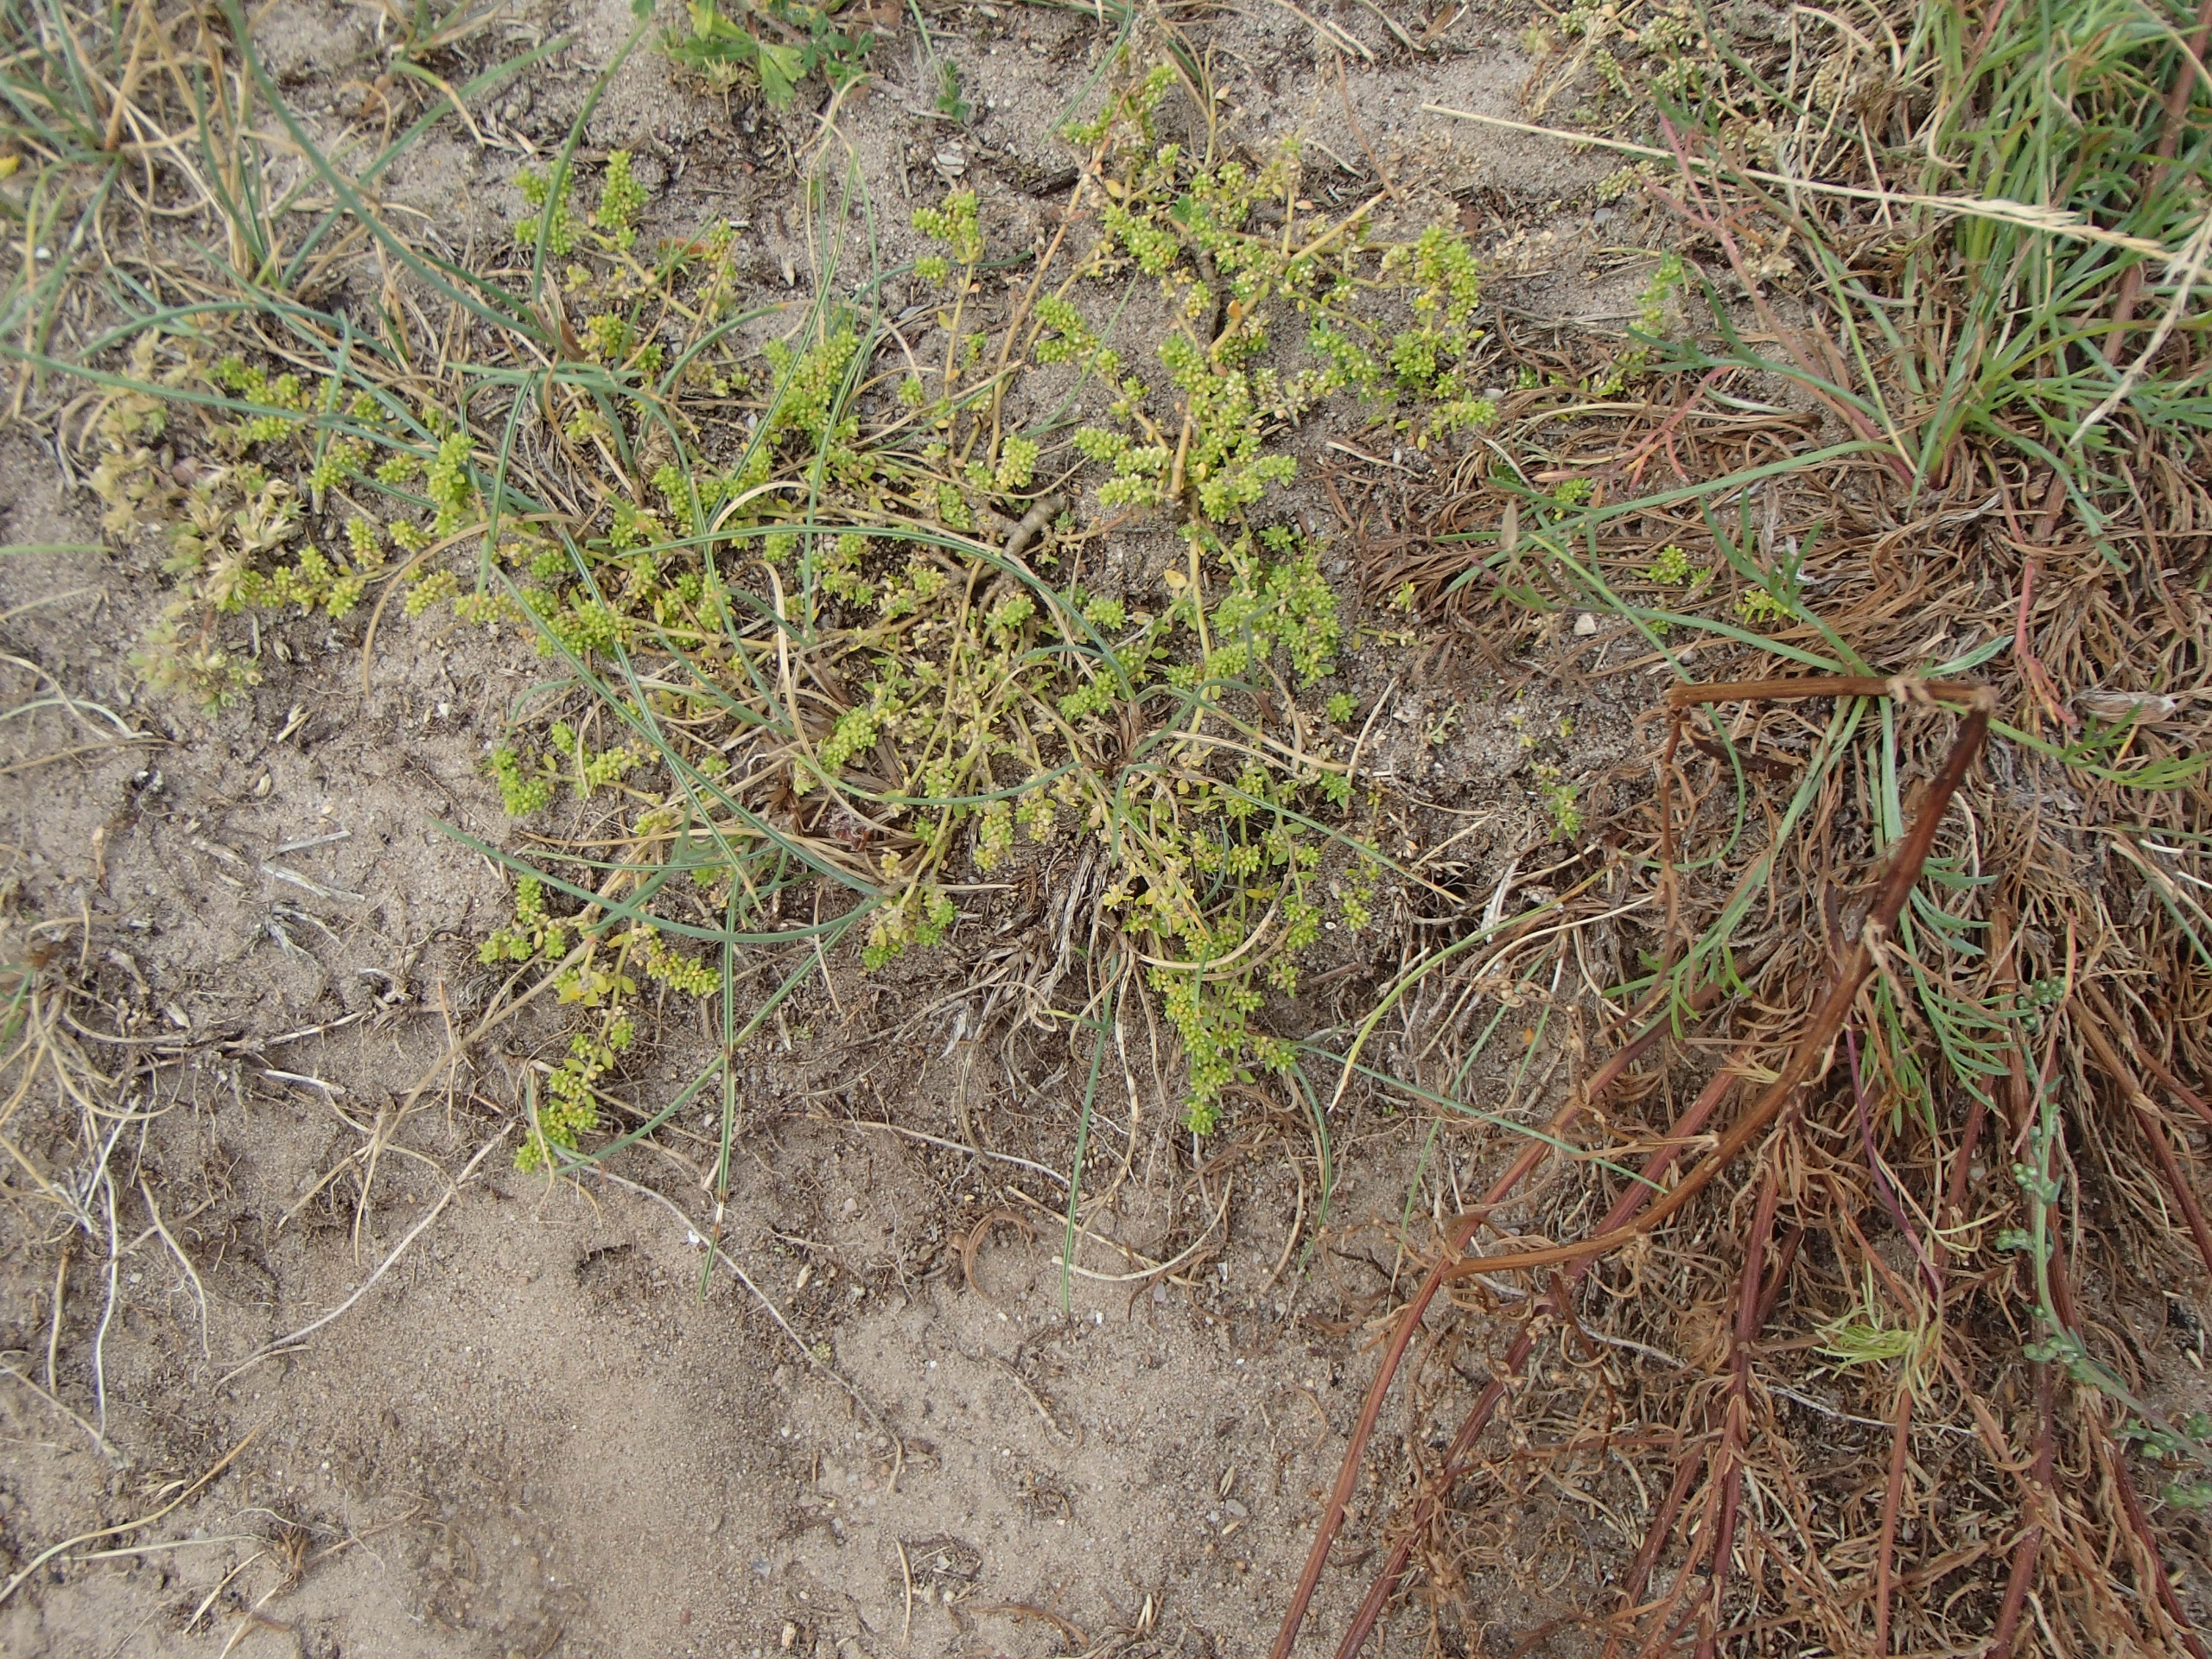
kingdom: Plantae
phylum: Tracheophyta
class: Magnoliopsida
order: Caryophyllales
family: Caryophyllaceae
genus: Herniaria
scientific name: Herniaria glabra
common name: Brudurt
